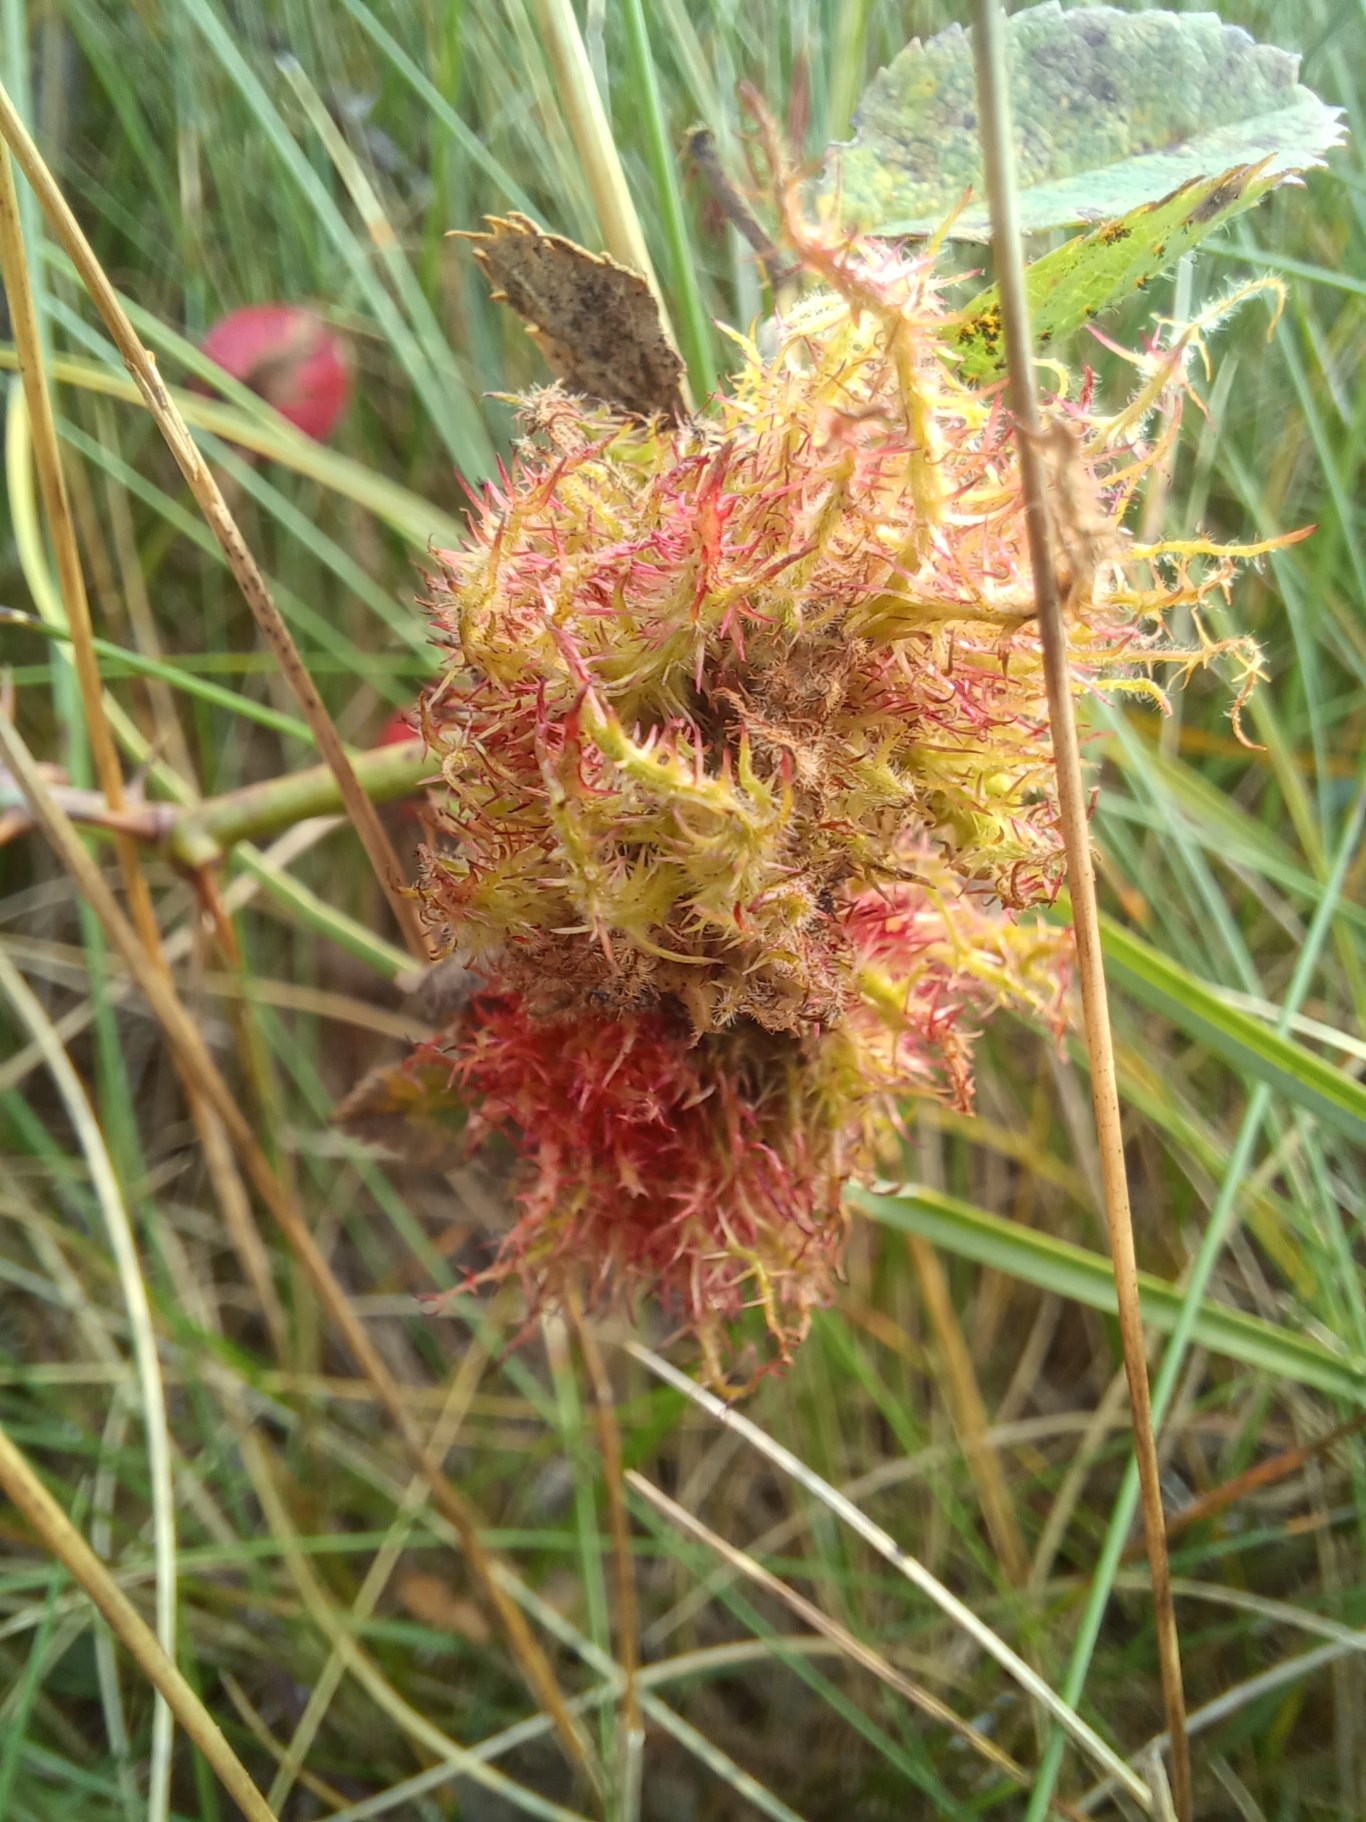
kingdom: Animalia
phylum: Arthropoda
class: Insecta
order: Hymenoptera
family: Cynipidae
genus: Diplolepis
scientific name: Diplolepis rosae
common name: Bedeguargalhveps
